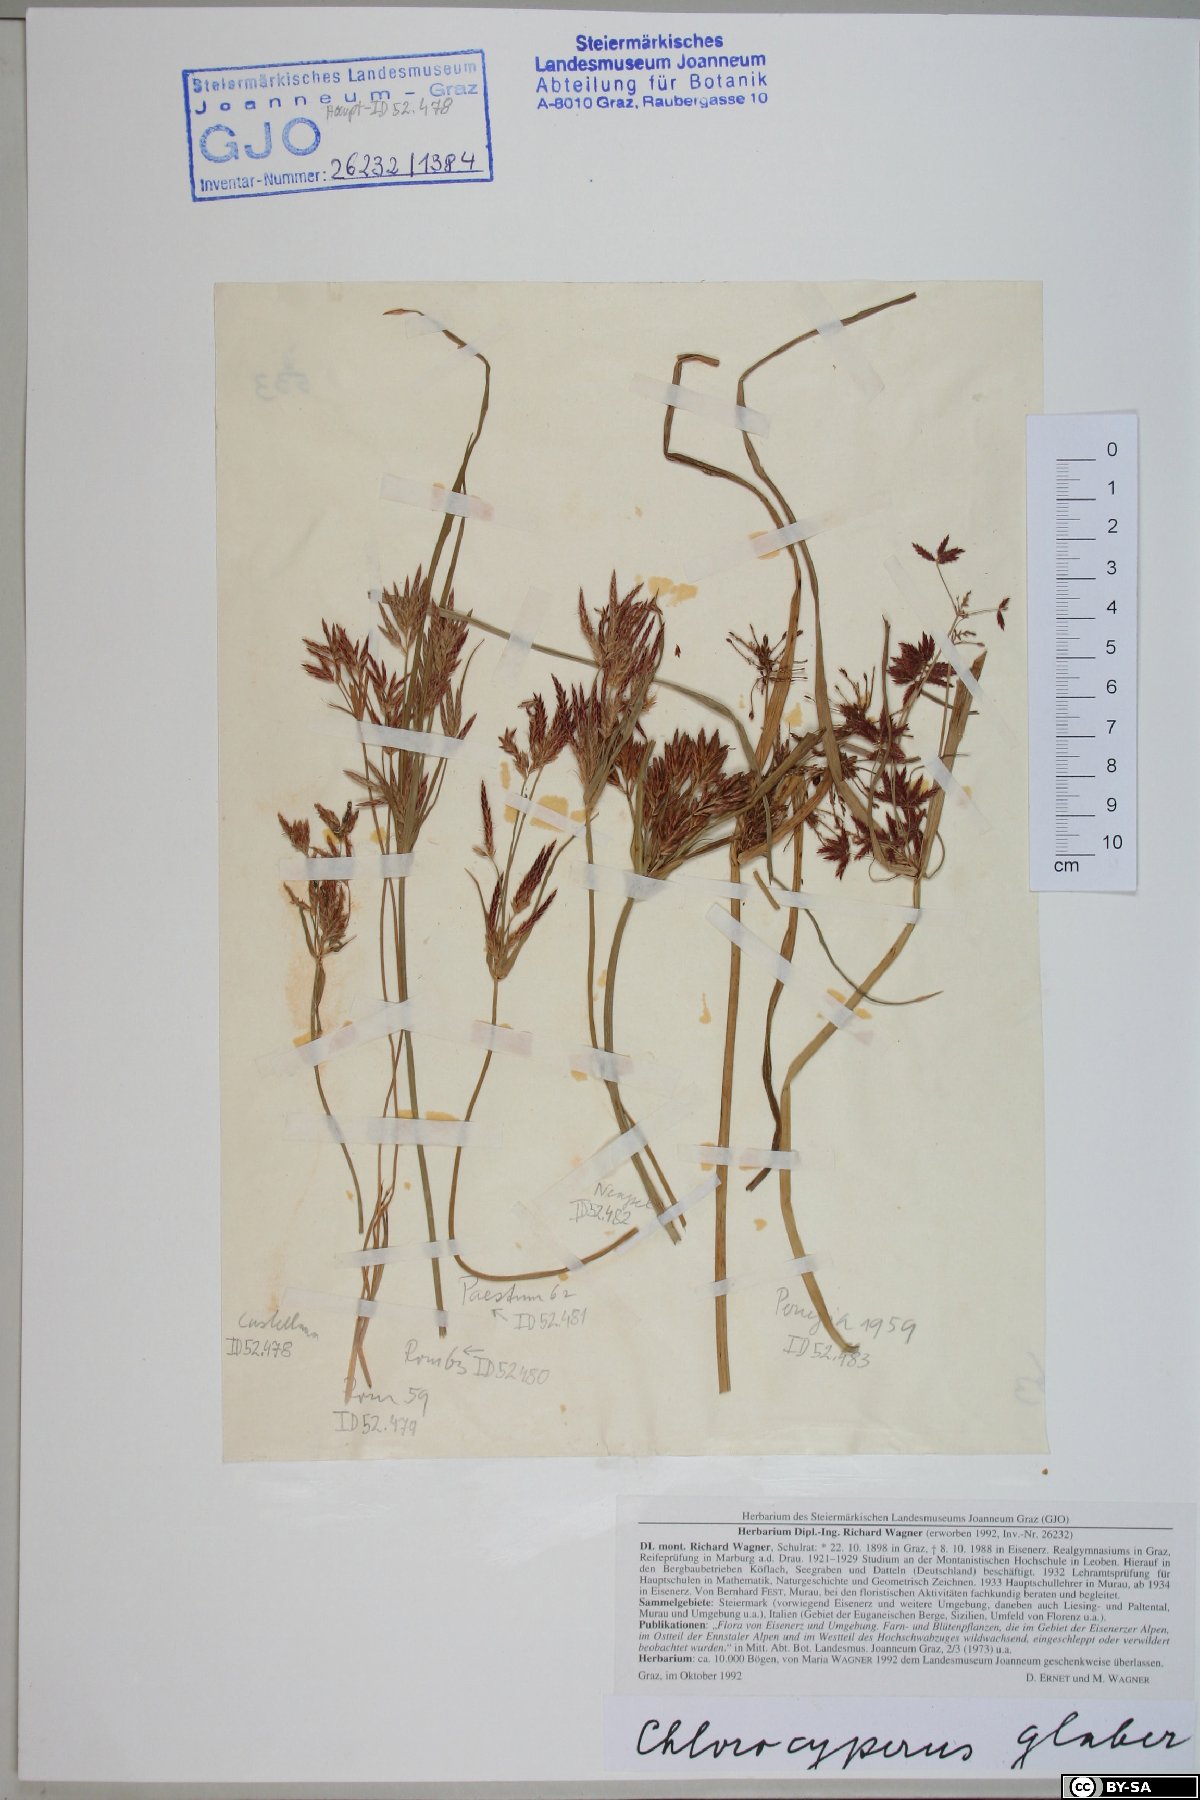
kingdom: Plantae
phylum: Tracheophyta
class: Liliopsida
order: Poales
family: Cyperaceae
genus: Cyperus
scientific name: Cyperus glaber
